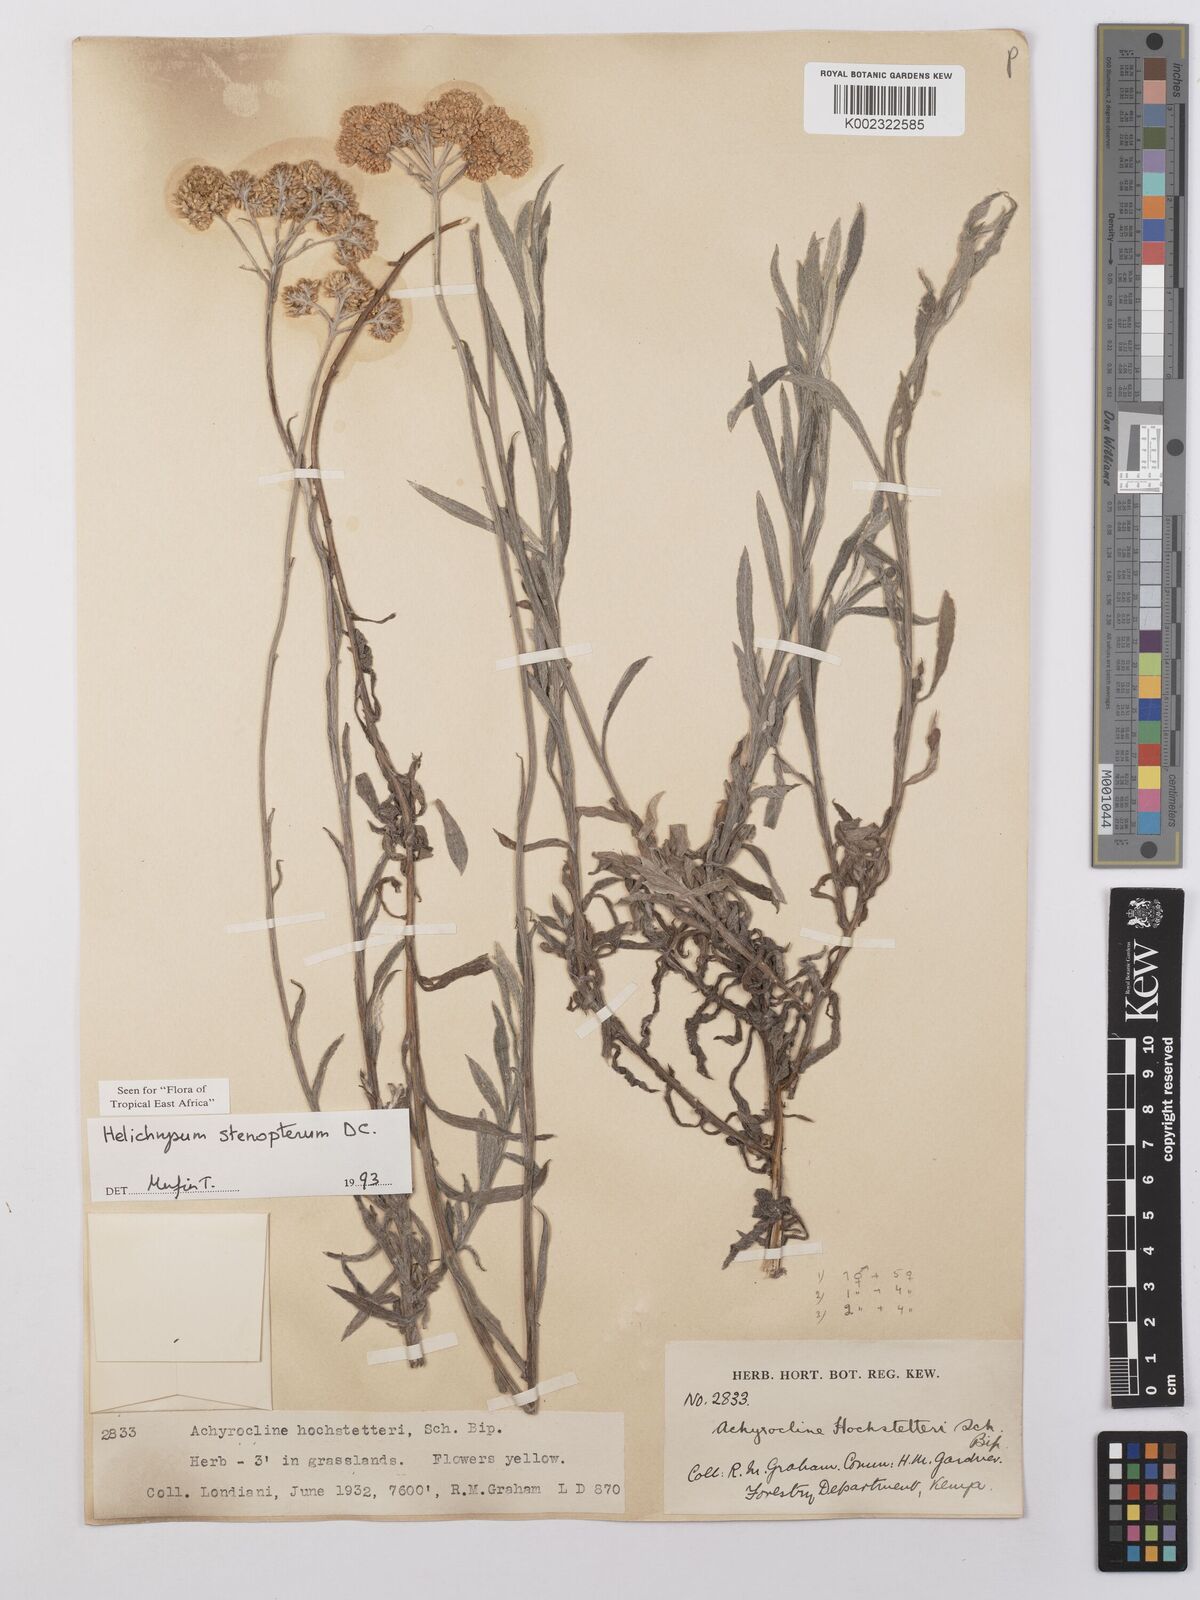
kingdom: Plantae
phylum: Tracheophyta
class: Magnoliopsida
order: Asterales
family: Asteraceae
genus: Helichrysum
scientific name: Helichrysum stenopterum
